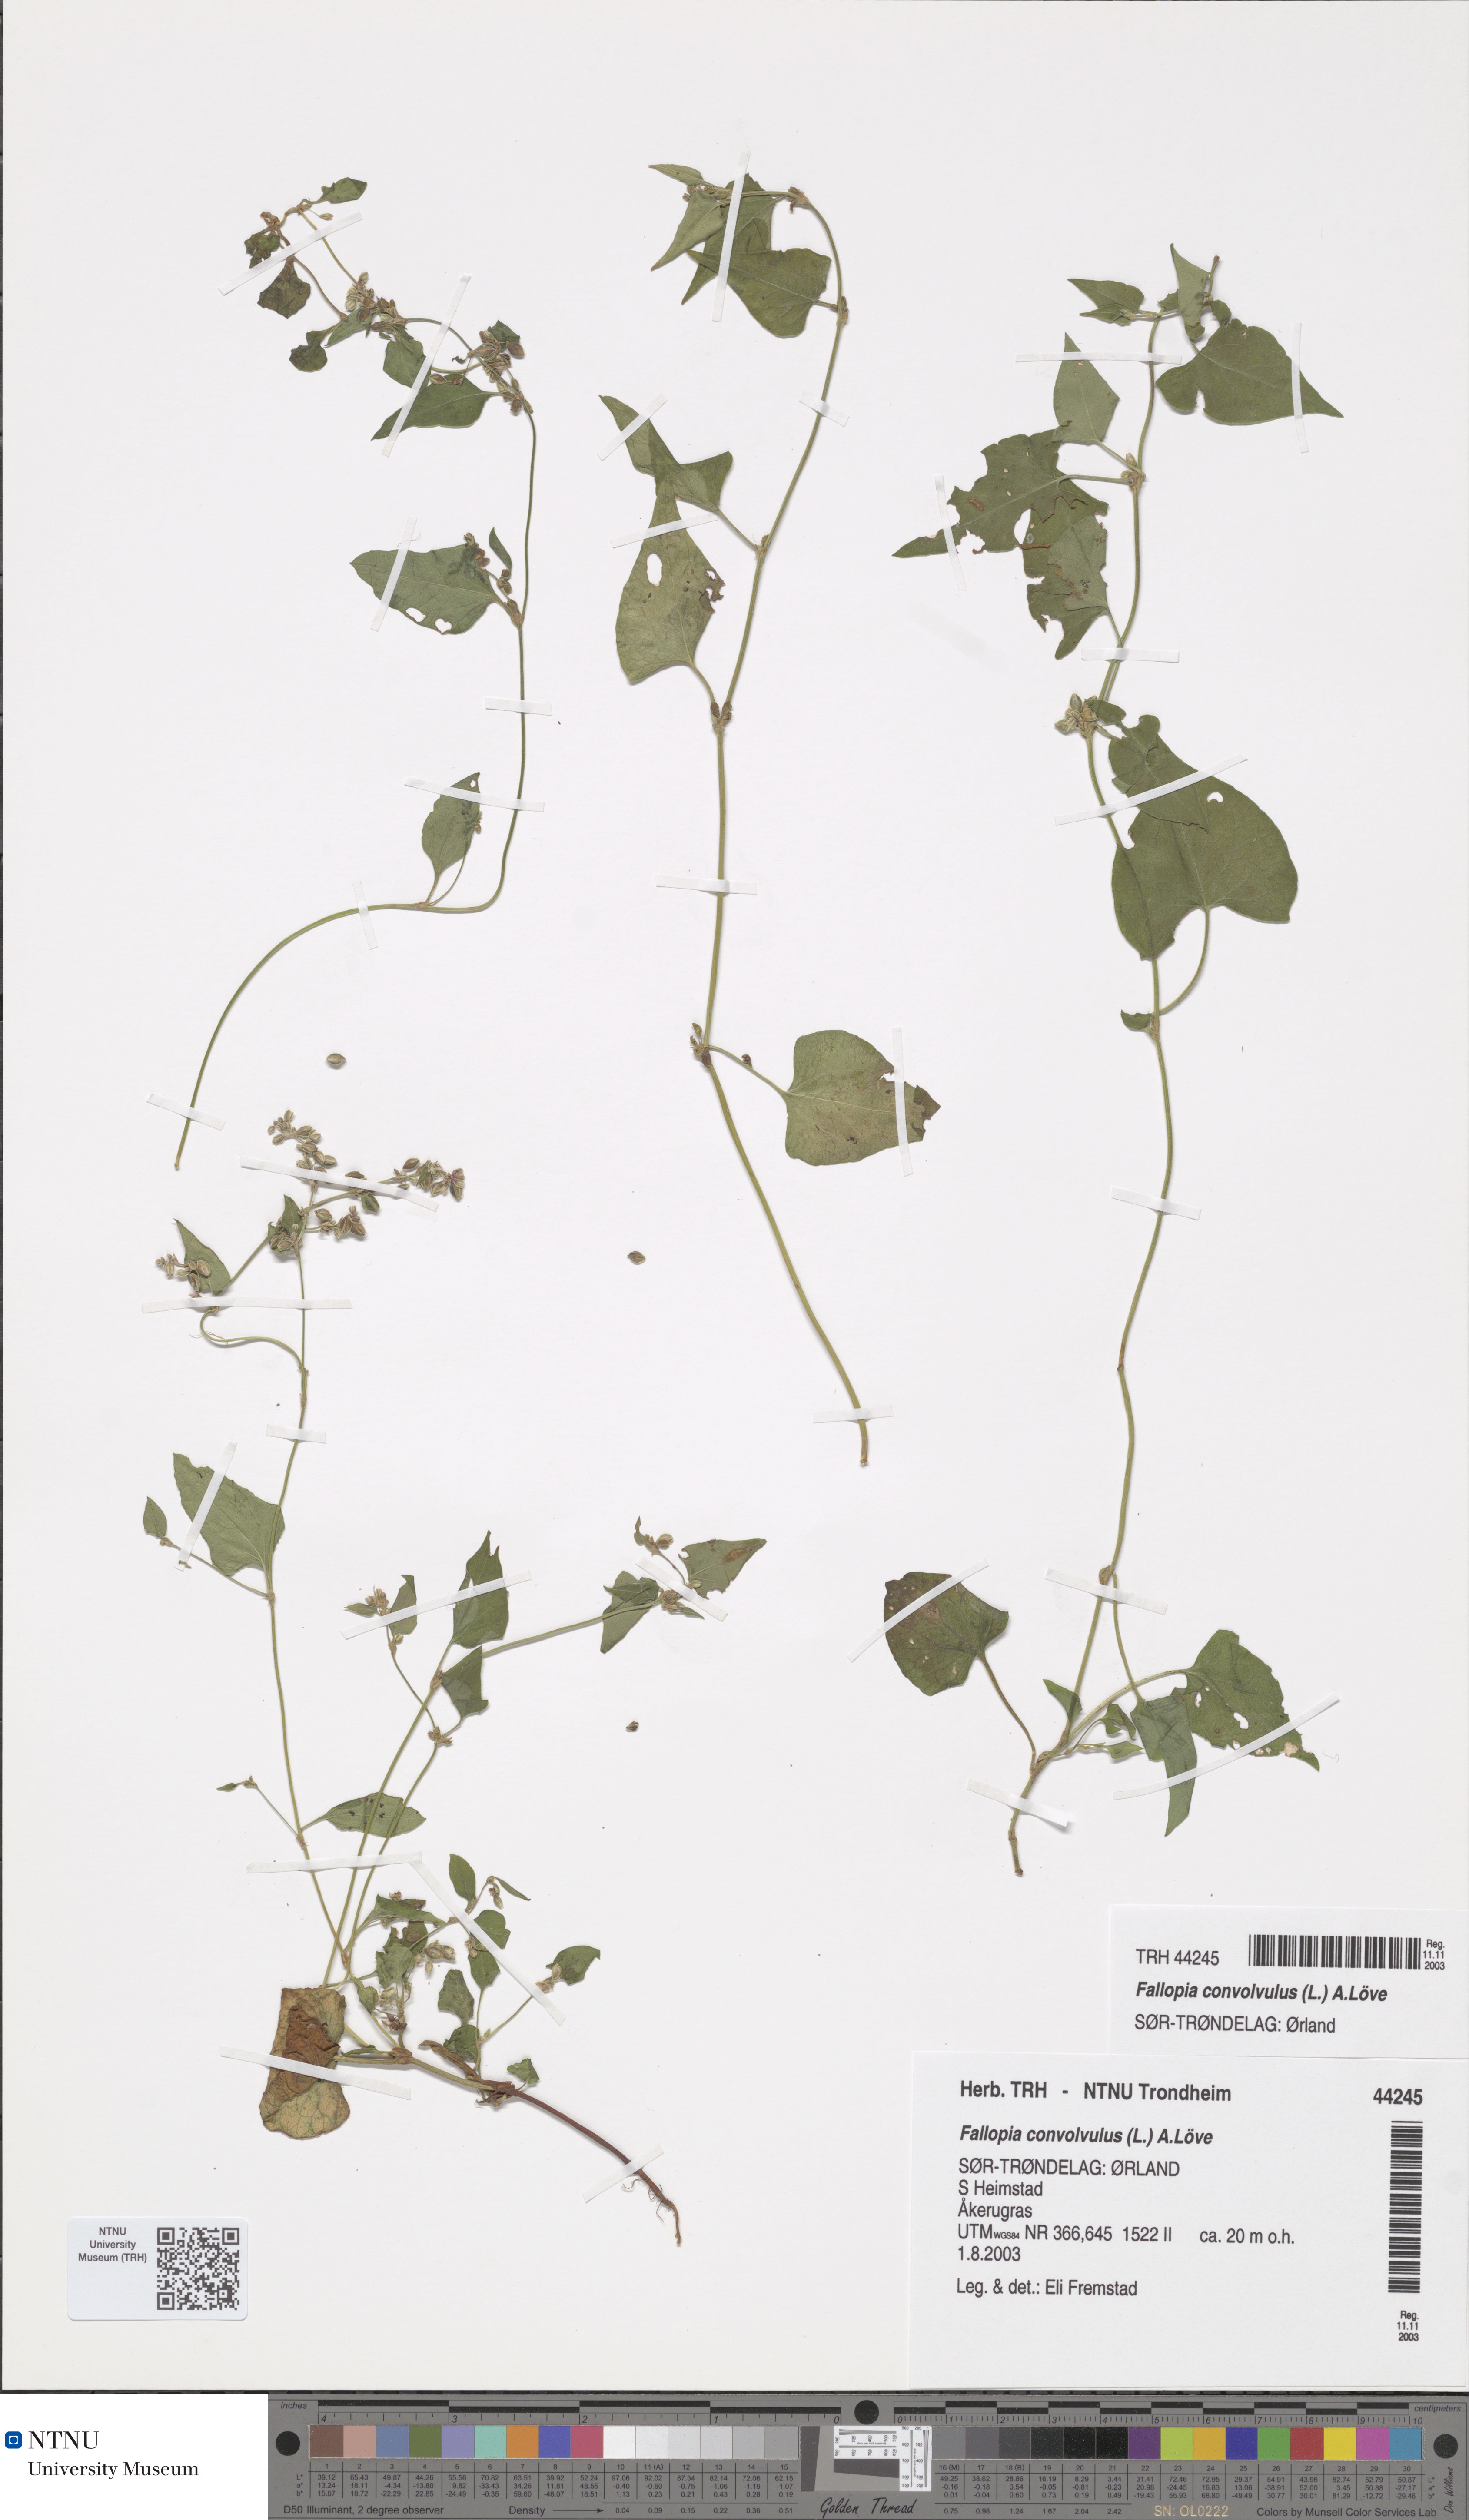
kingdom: Plantae
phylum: Tracheophyta
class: Magnoliopsida
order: Caryophyllales
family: Polygonaceae
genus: Fallopia
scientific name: Fallopia convolvulus
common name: Black bindweed
